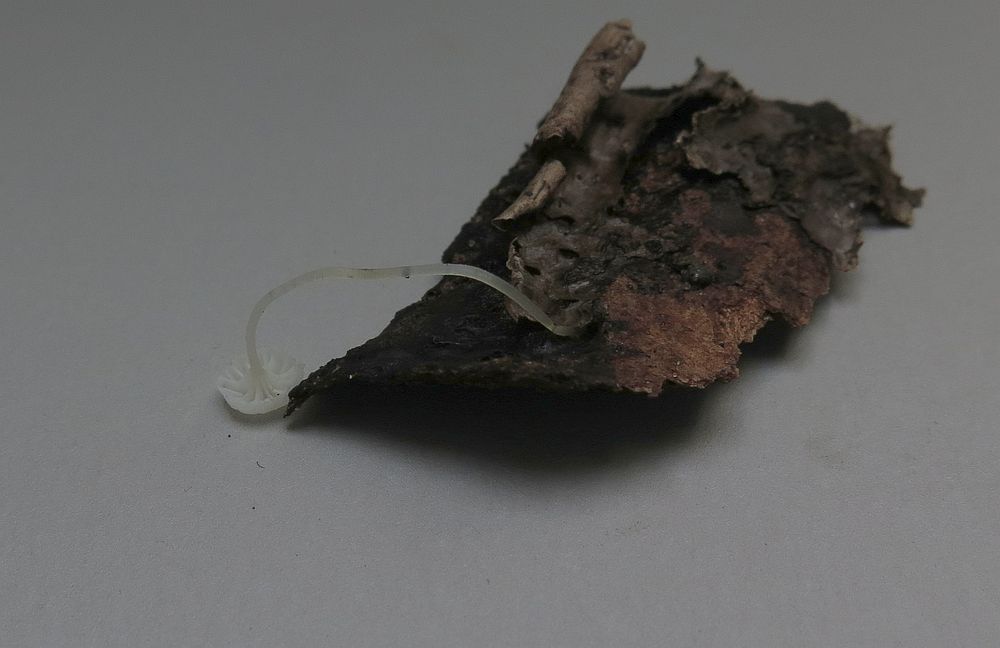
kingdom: Fungi
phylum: Basidiomycota
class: Agaricomycetes
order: Agaricales
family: Porotheleaceae
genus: Phloeomana
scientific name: Phloeomana speirea
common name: kvist-huesvamp
